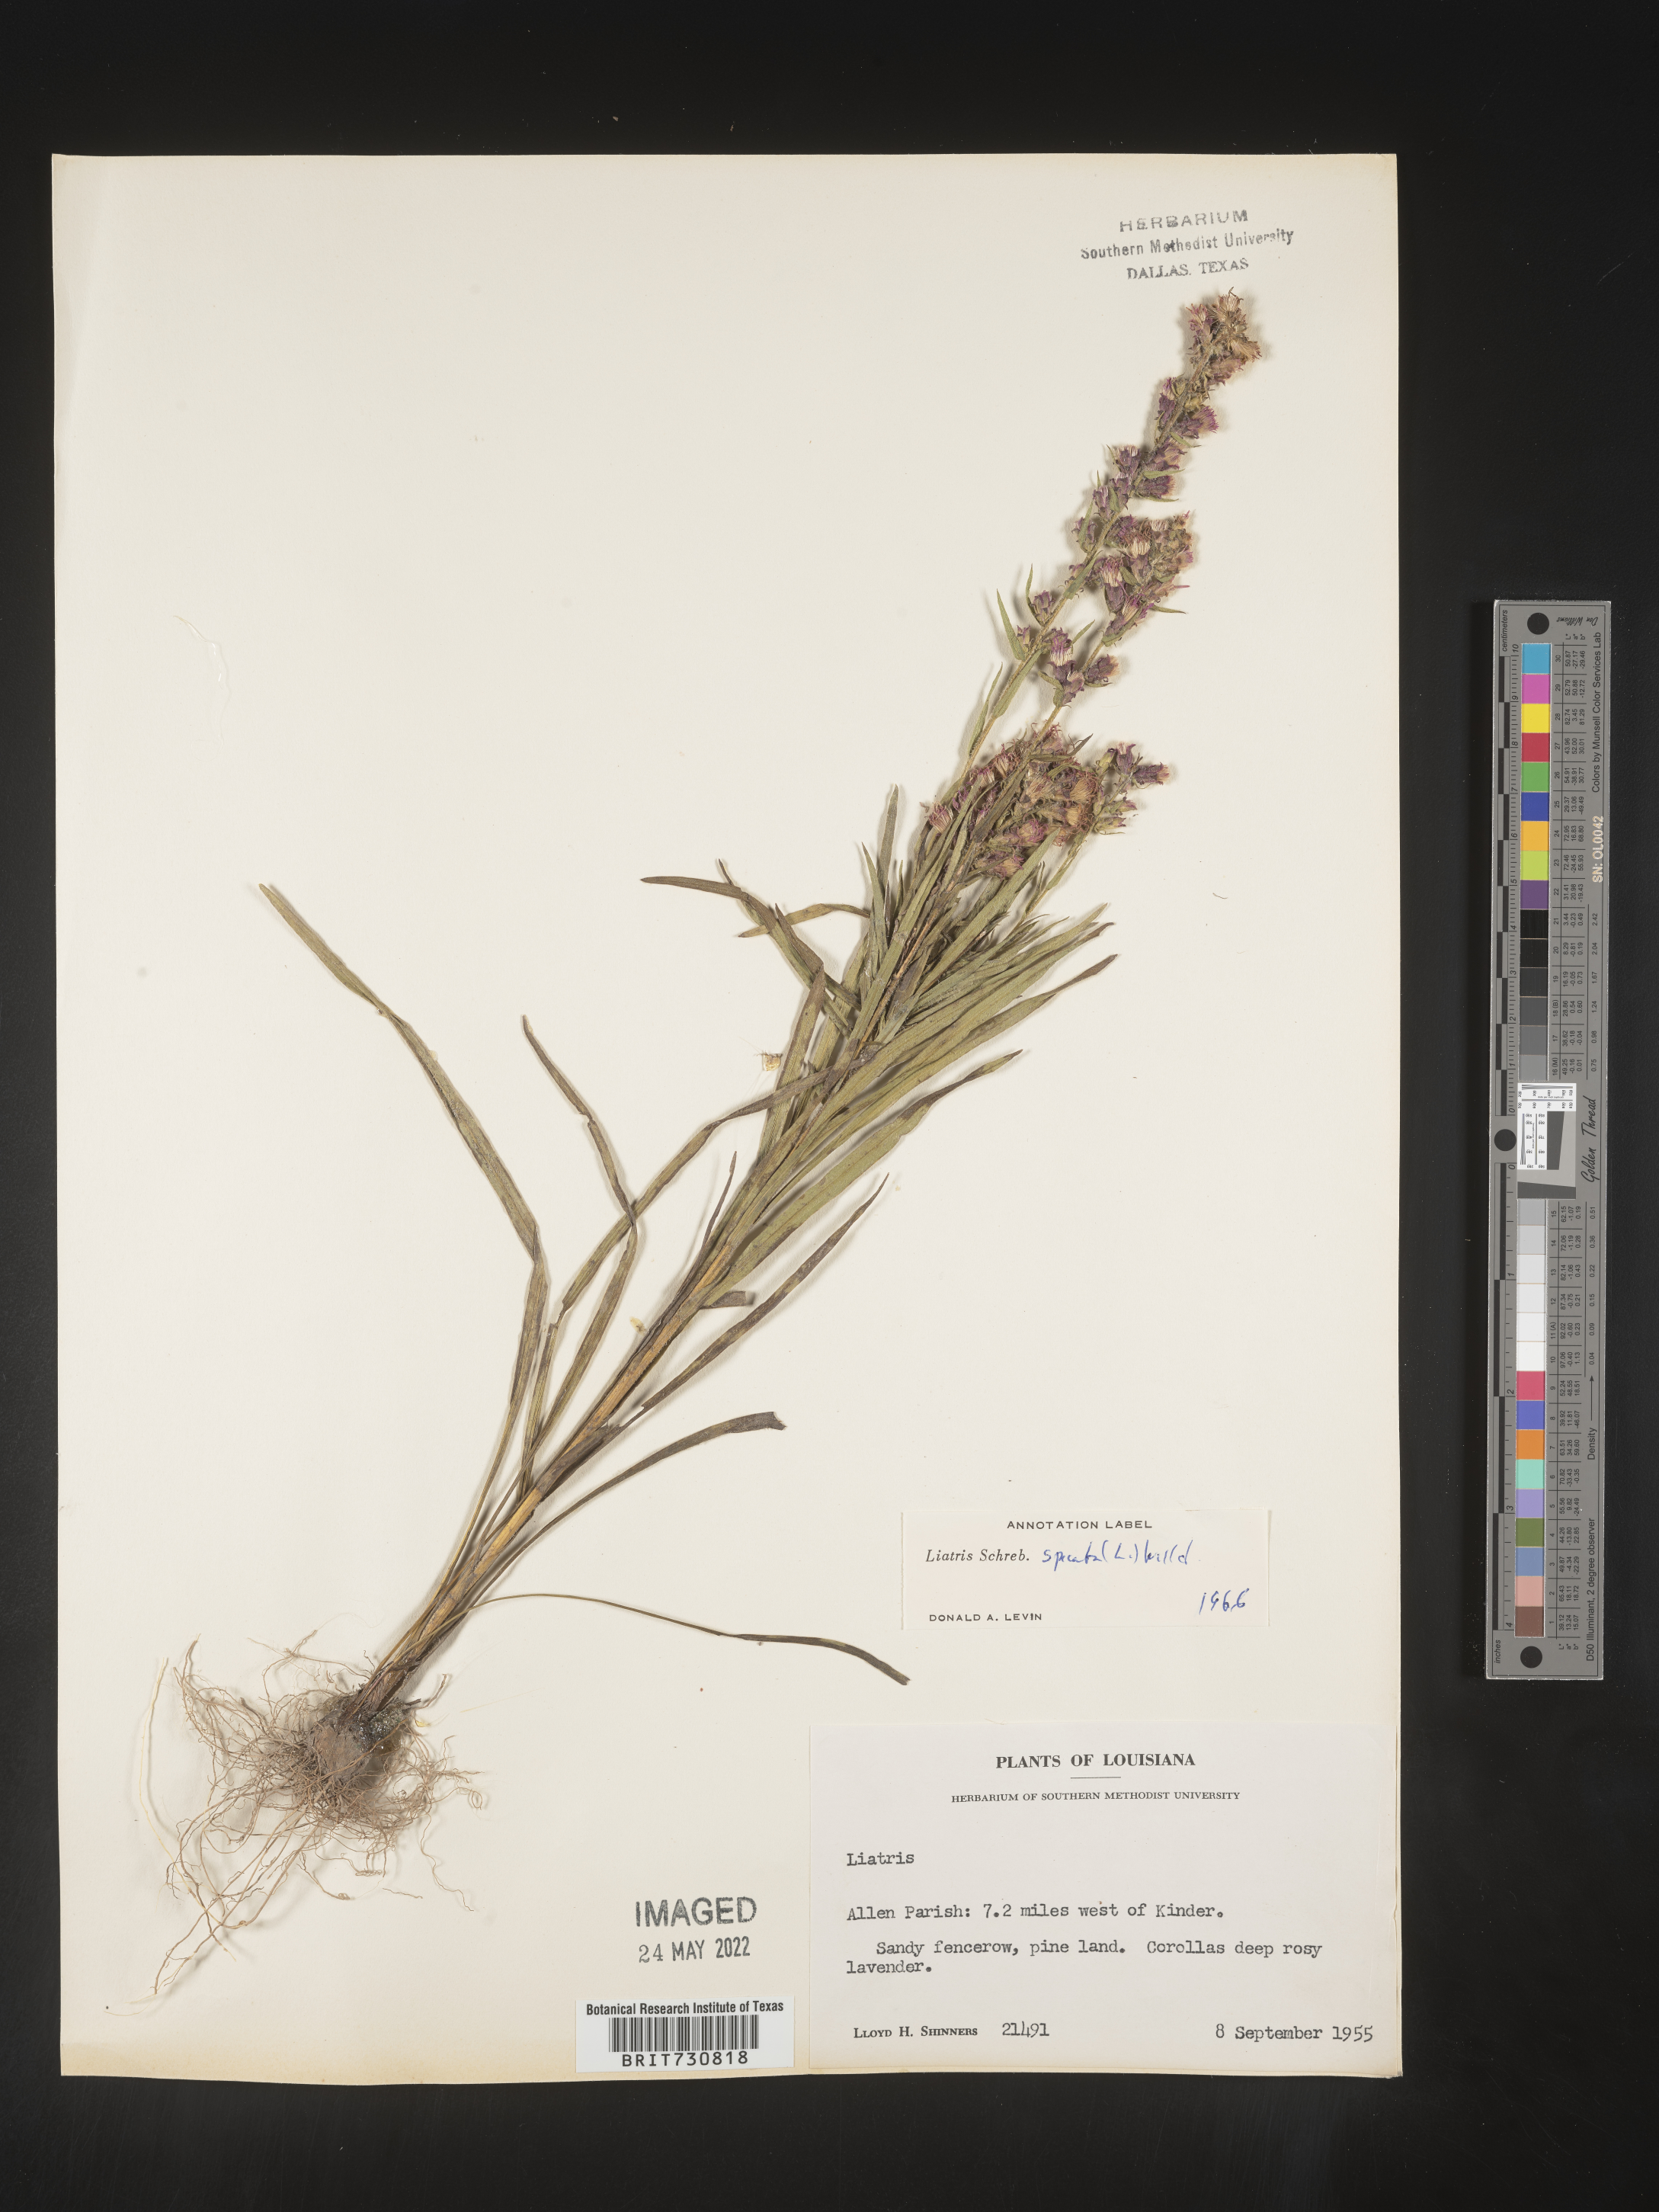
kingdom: Plantae
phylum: Tracheophyta
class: Magnoliopsida
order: Asterales
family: Asteraceae
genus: Liatris
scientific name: Liatris pycnostachya
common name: Cattail gayfeather
